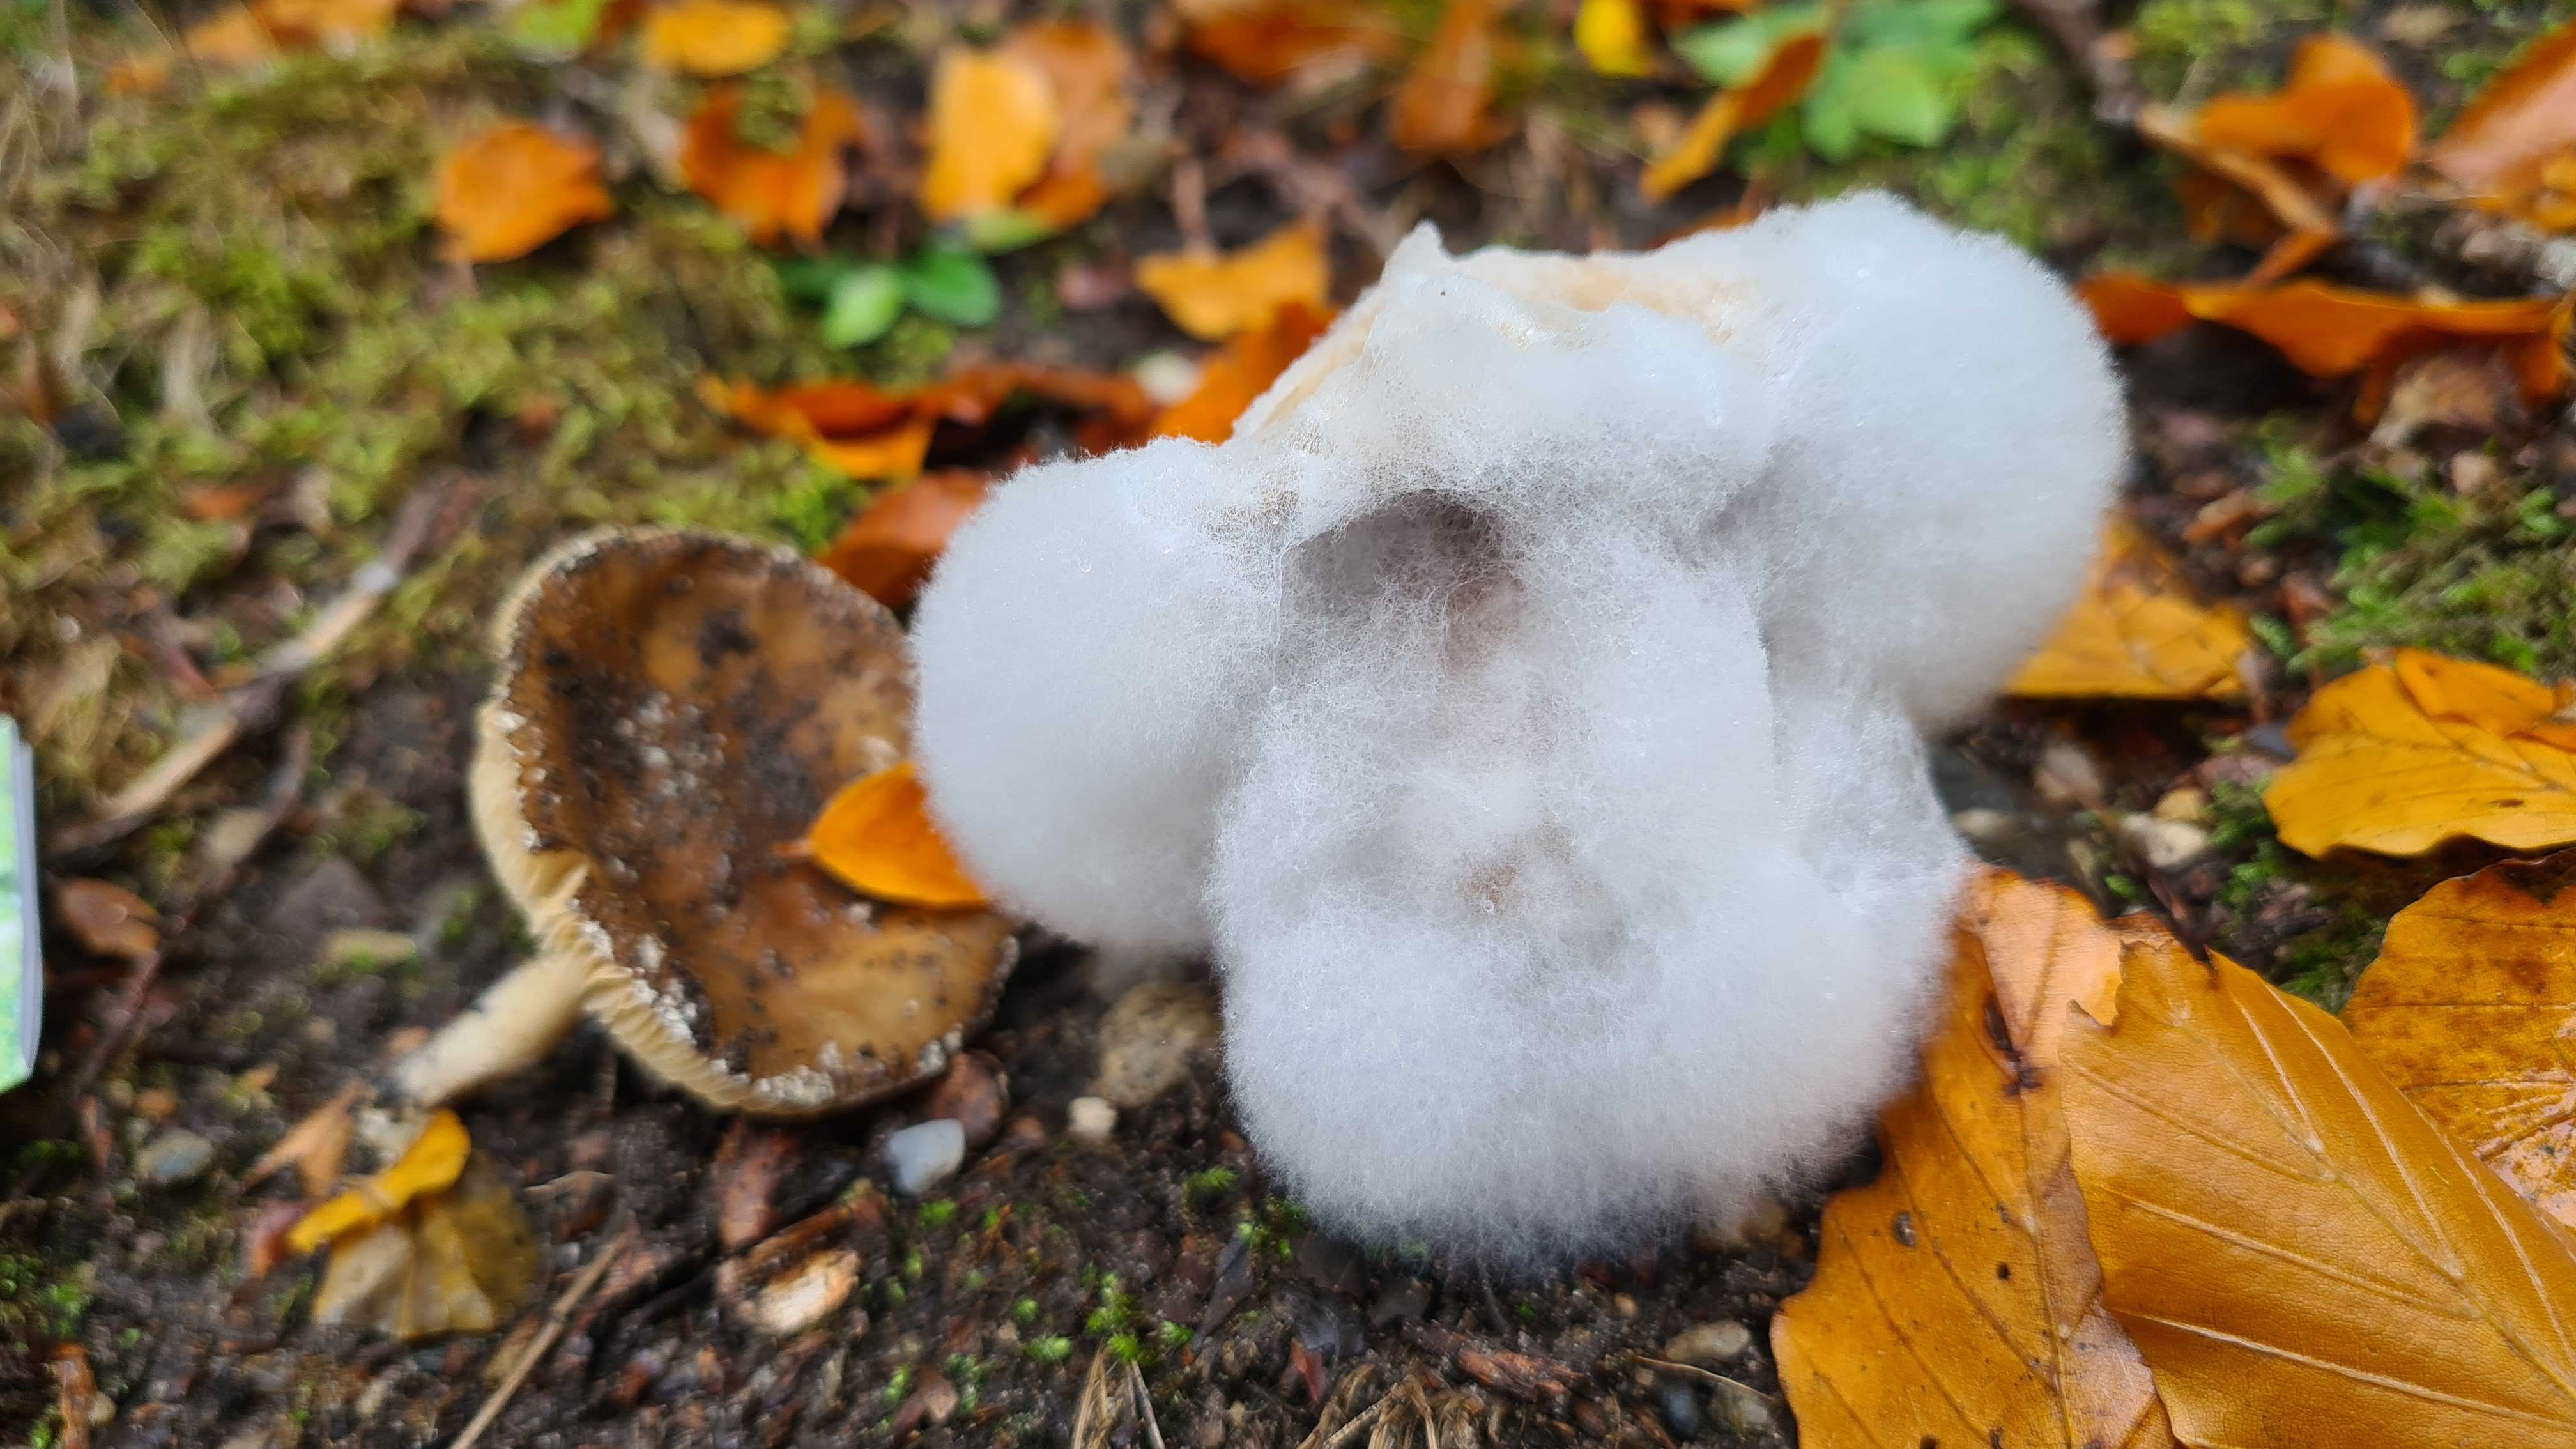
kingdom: Fungi
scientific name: Fungi
